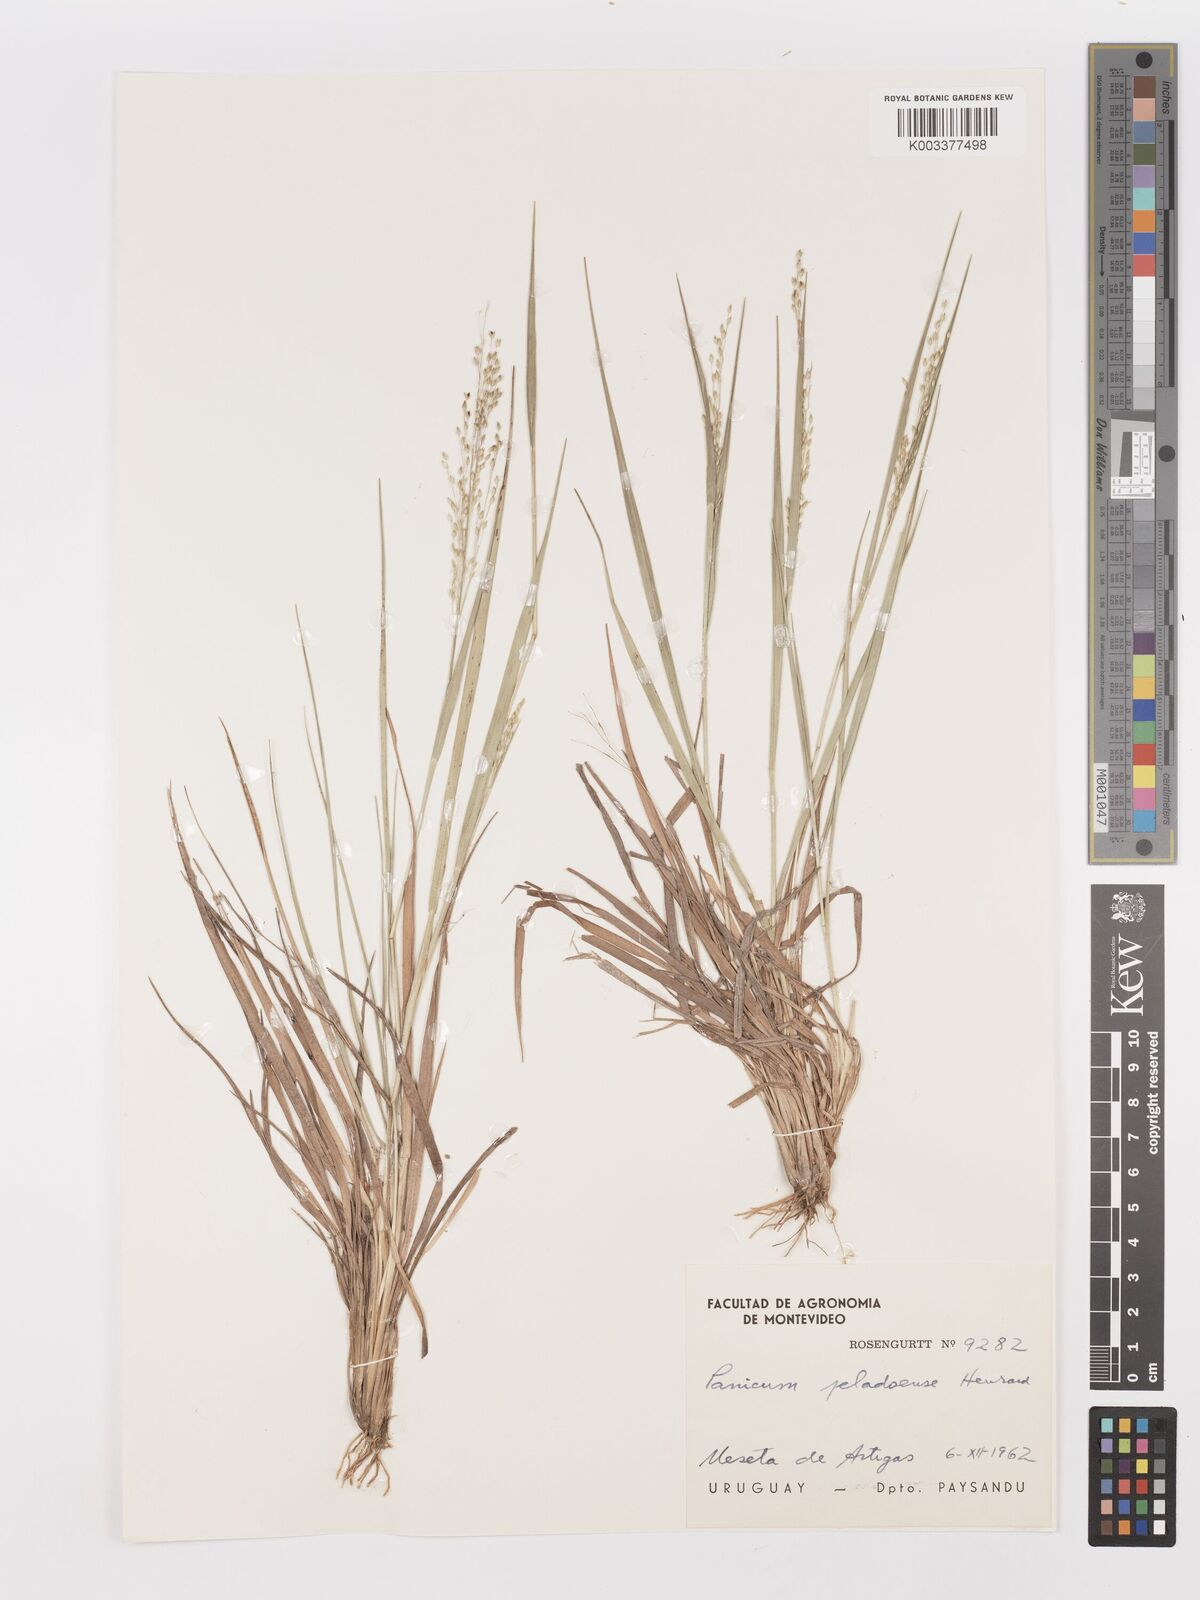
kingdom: Plantae
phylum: Tracheophyta
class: Liliopsida
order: Poales
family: Poaceae
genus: Panicum
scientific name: Panicum peladoense
